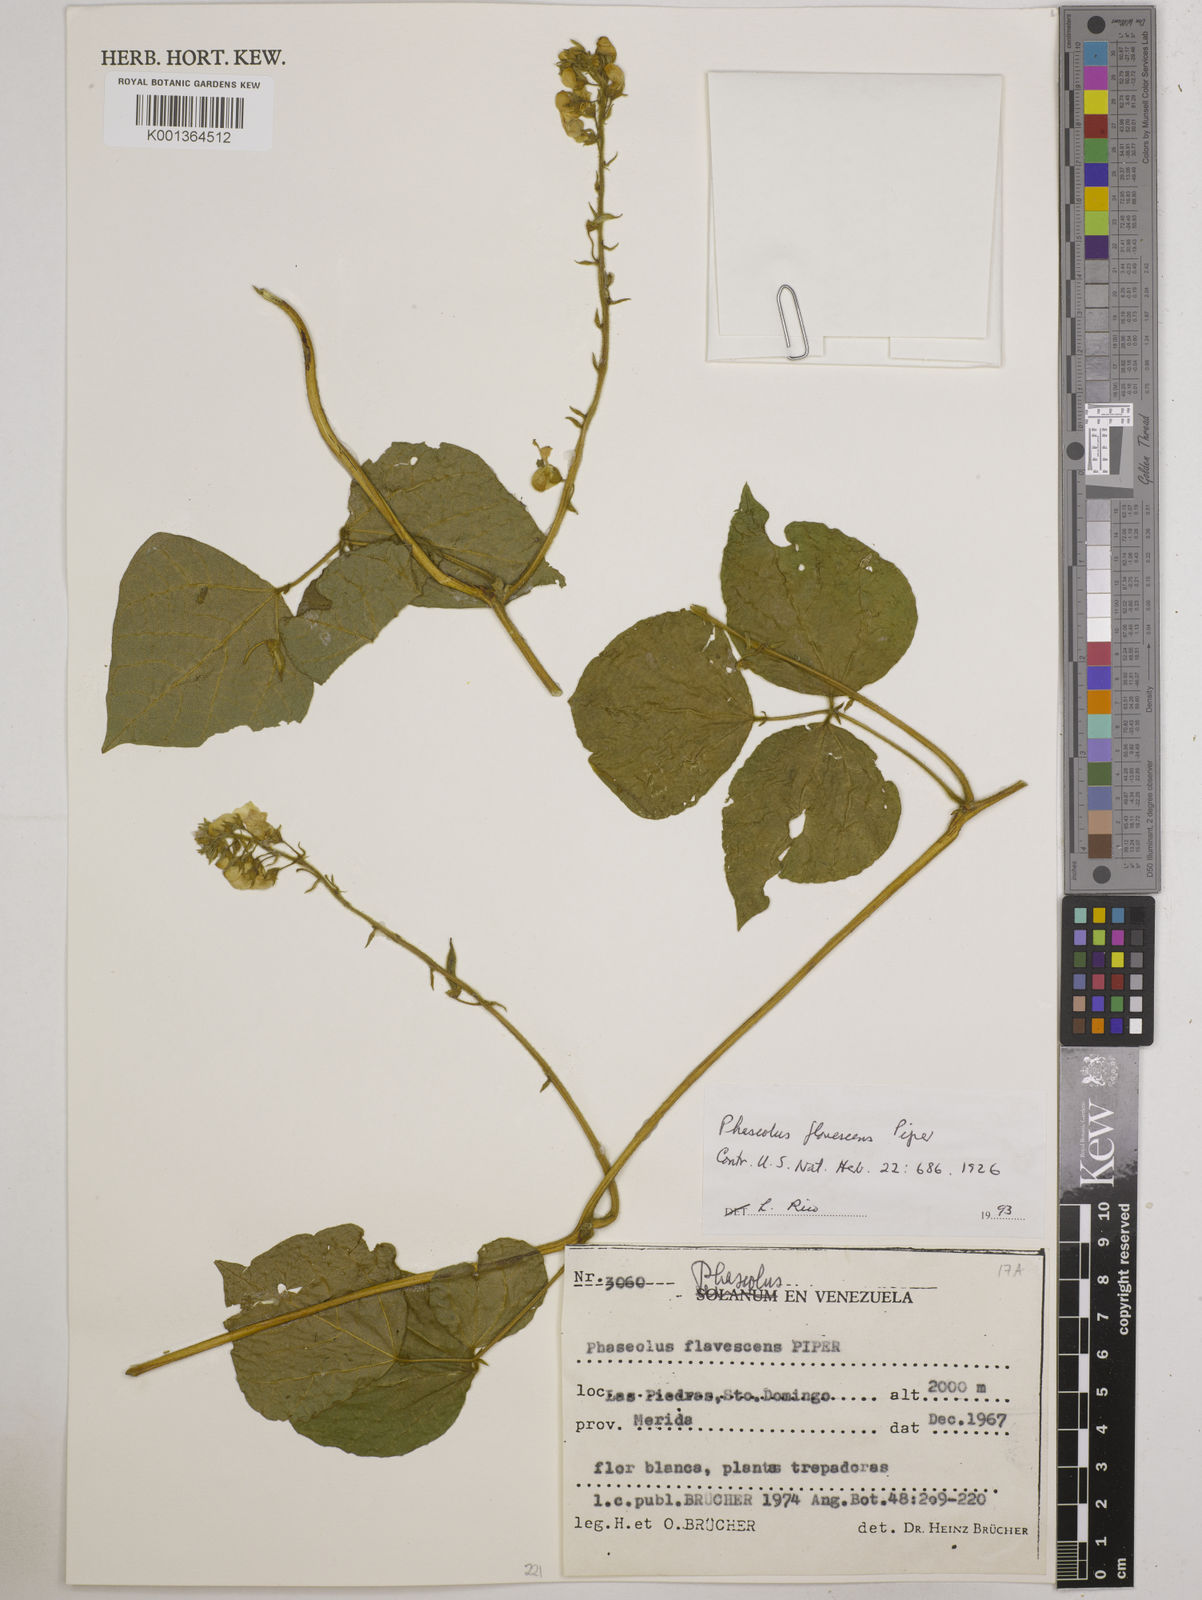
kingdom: Plantae
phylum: Tracheophyta
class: Magnoliopsida
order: Fabales
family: Fabaceae
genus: Phaseolus
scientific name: Phaseolus
